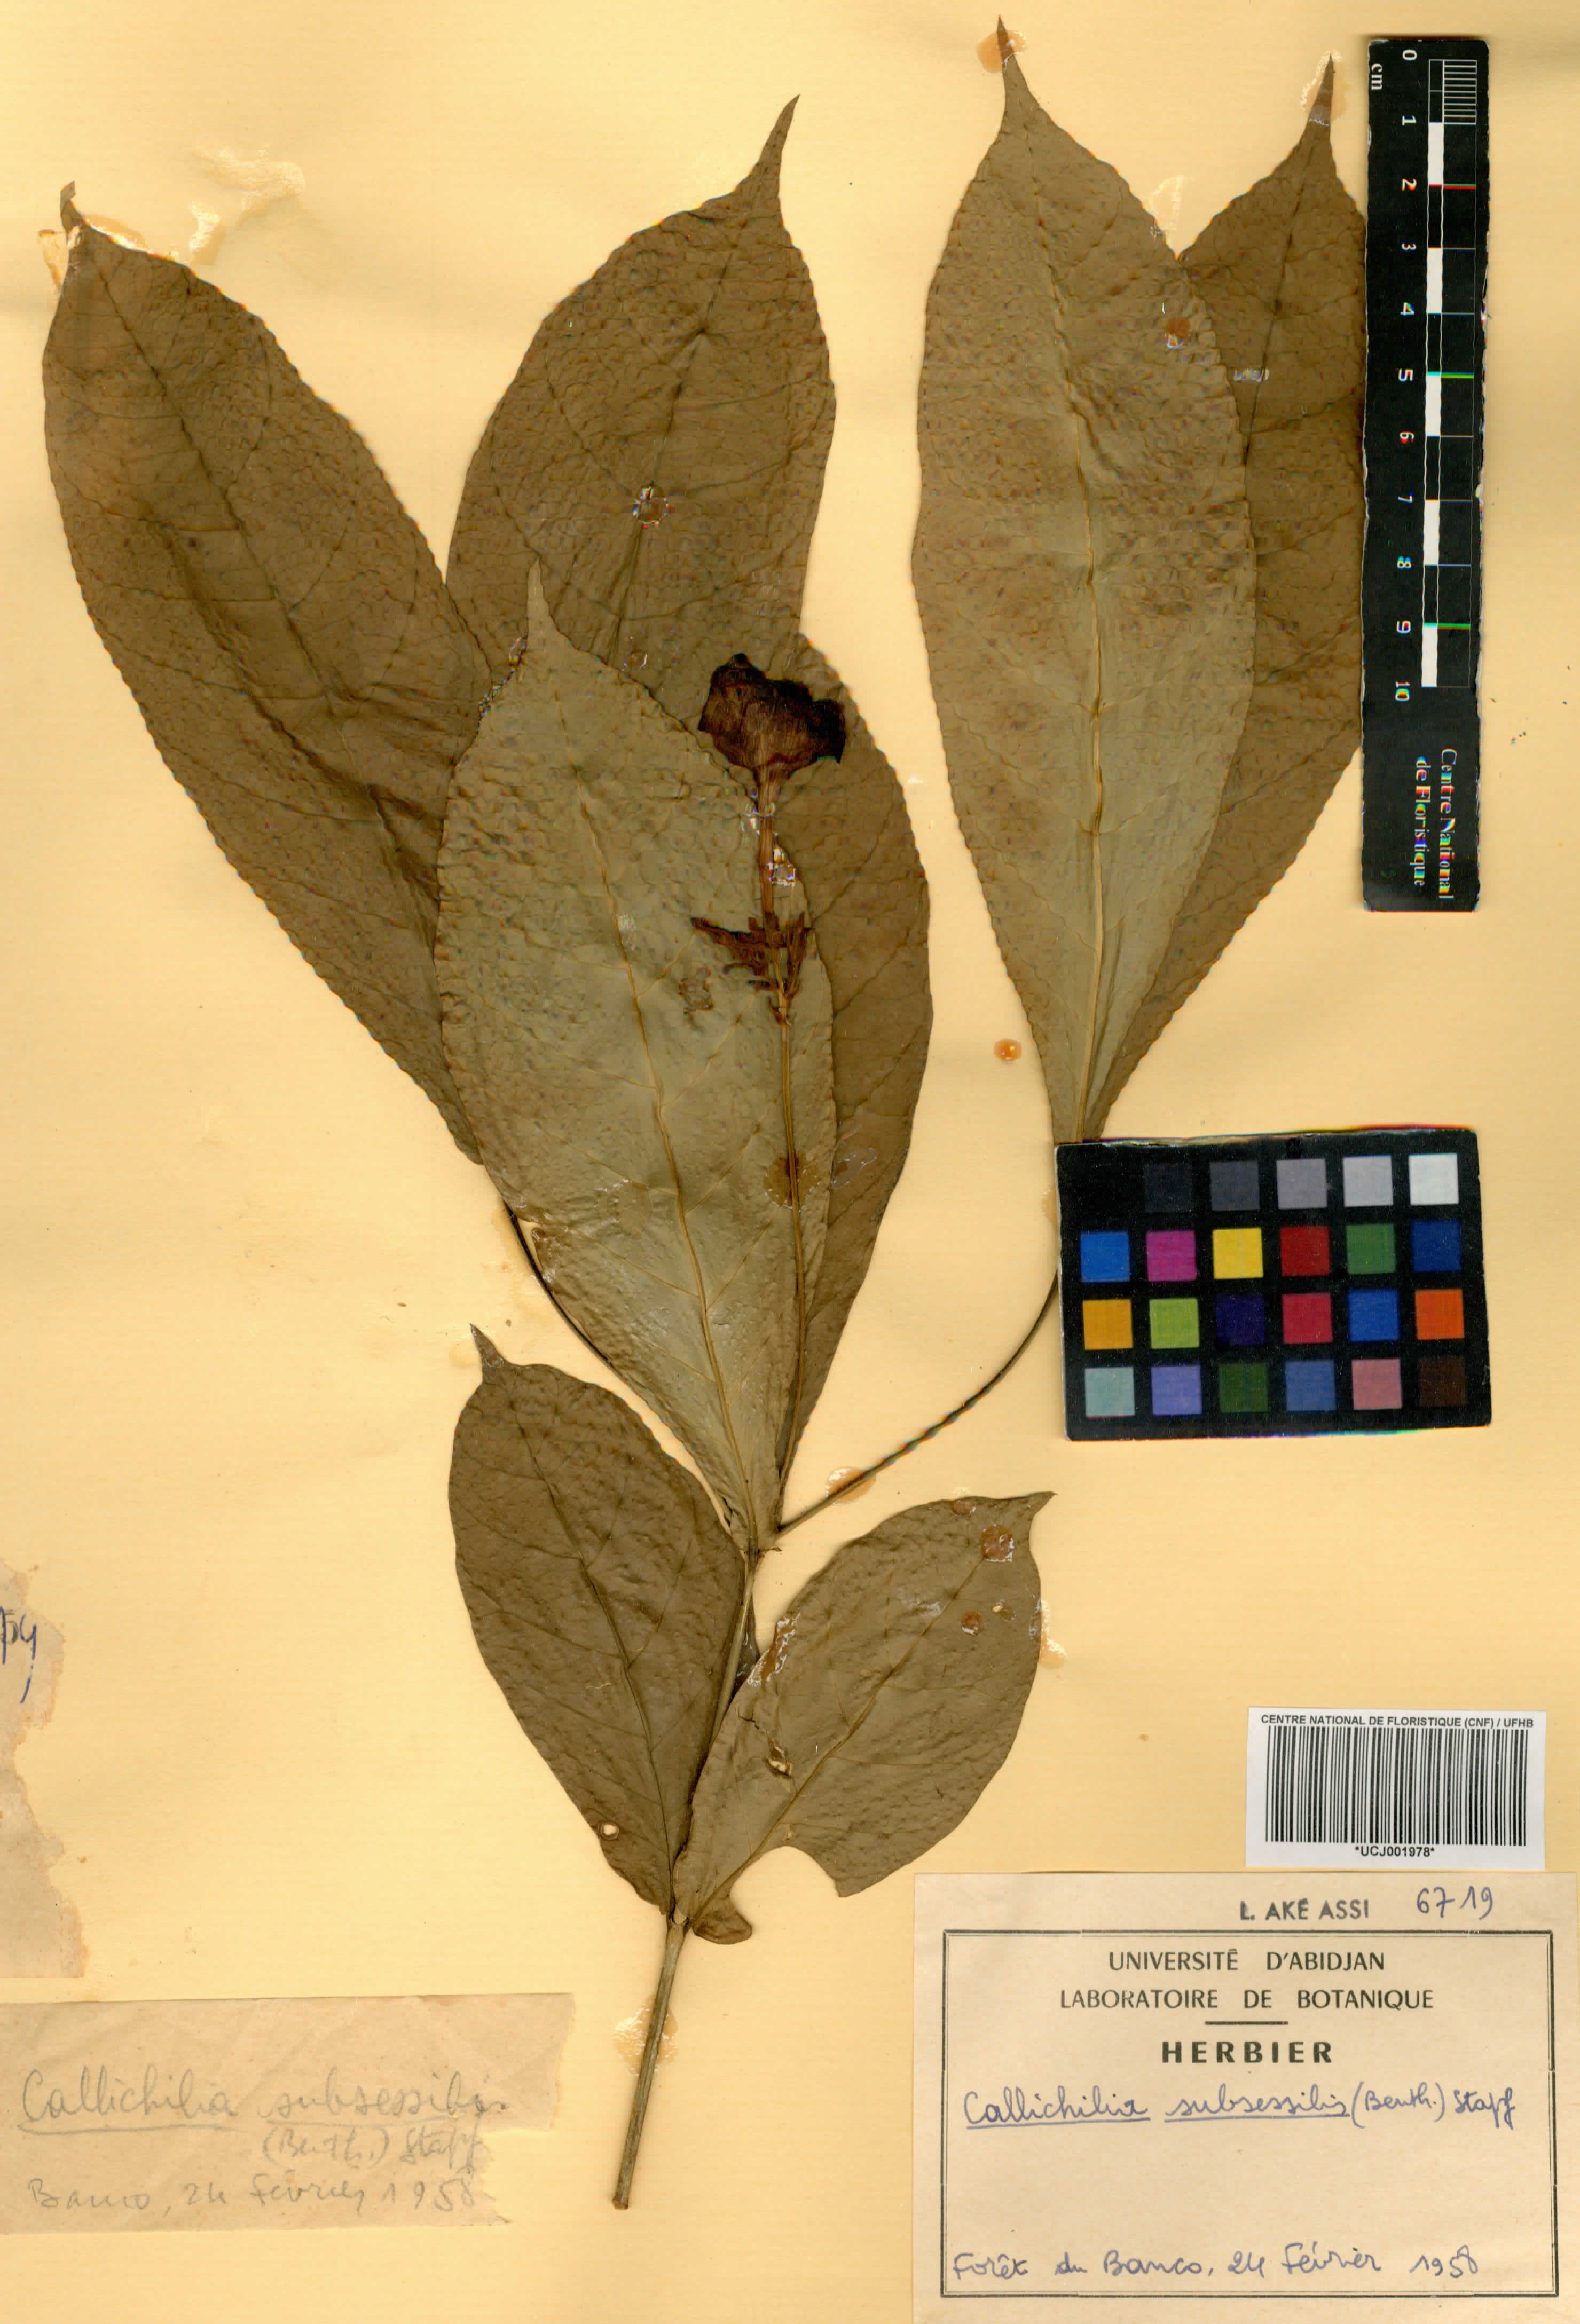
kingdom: Plantae
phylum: Tracheophyta
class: Magnoliopsida
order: Gentianales
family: Apocynaceae
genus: Callichilia
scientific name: Callichilia subsessilis
